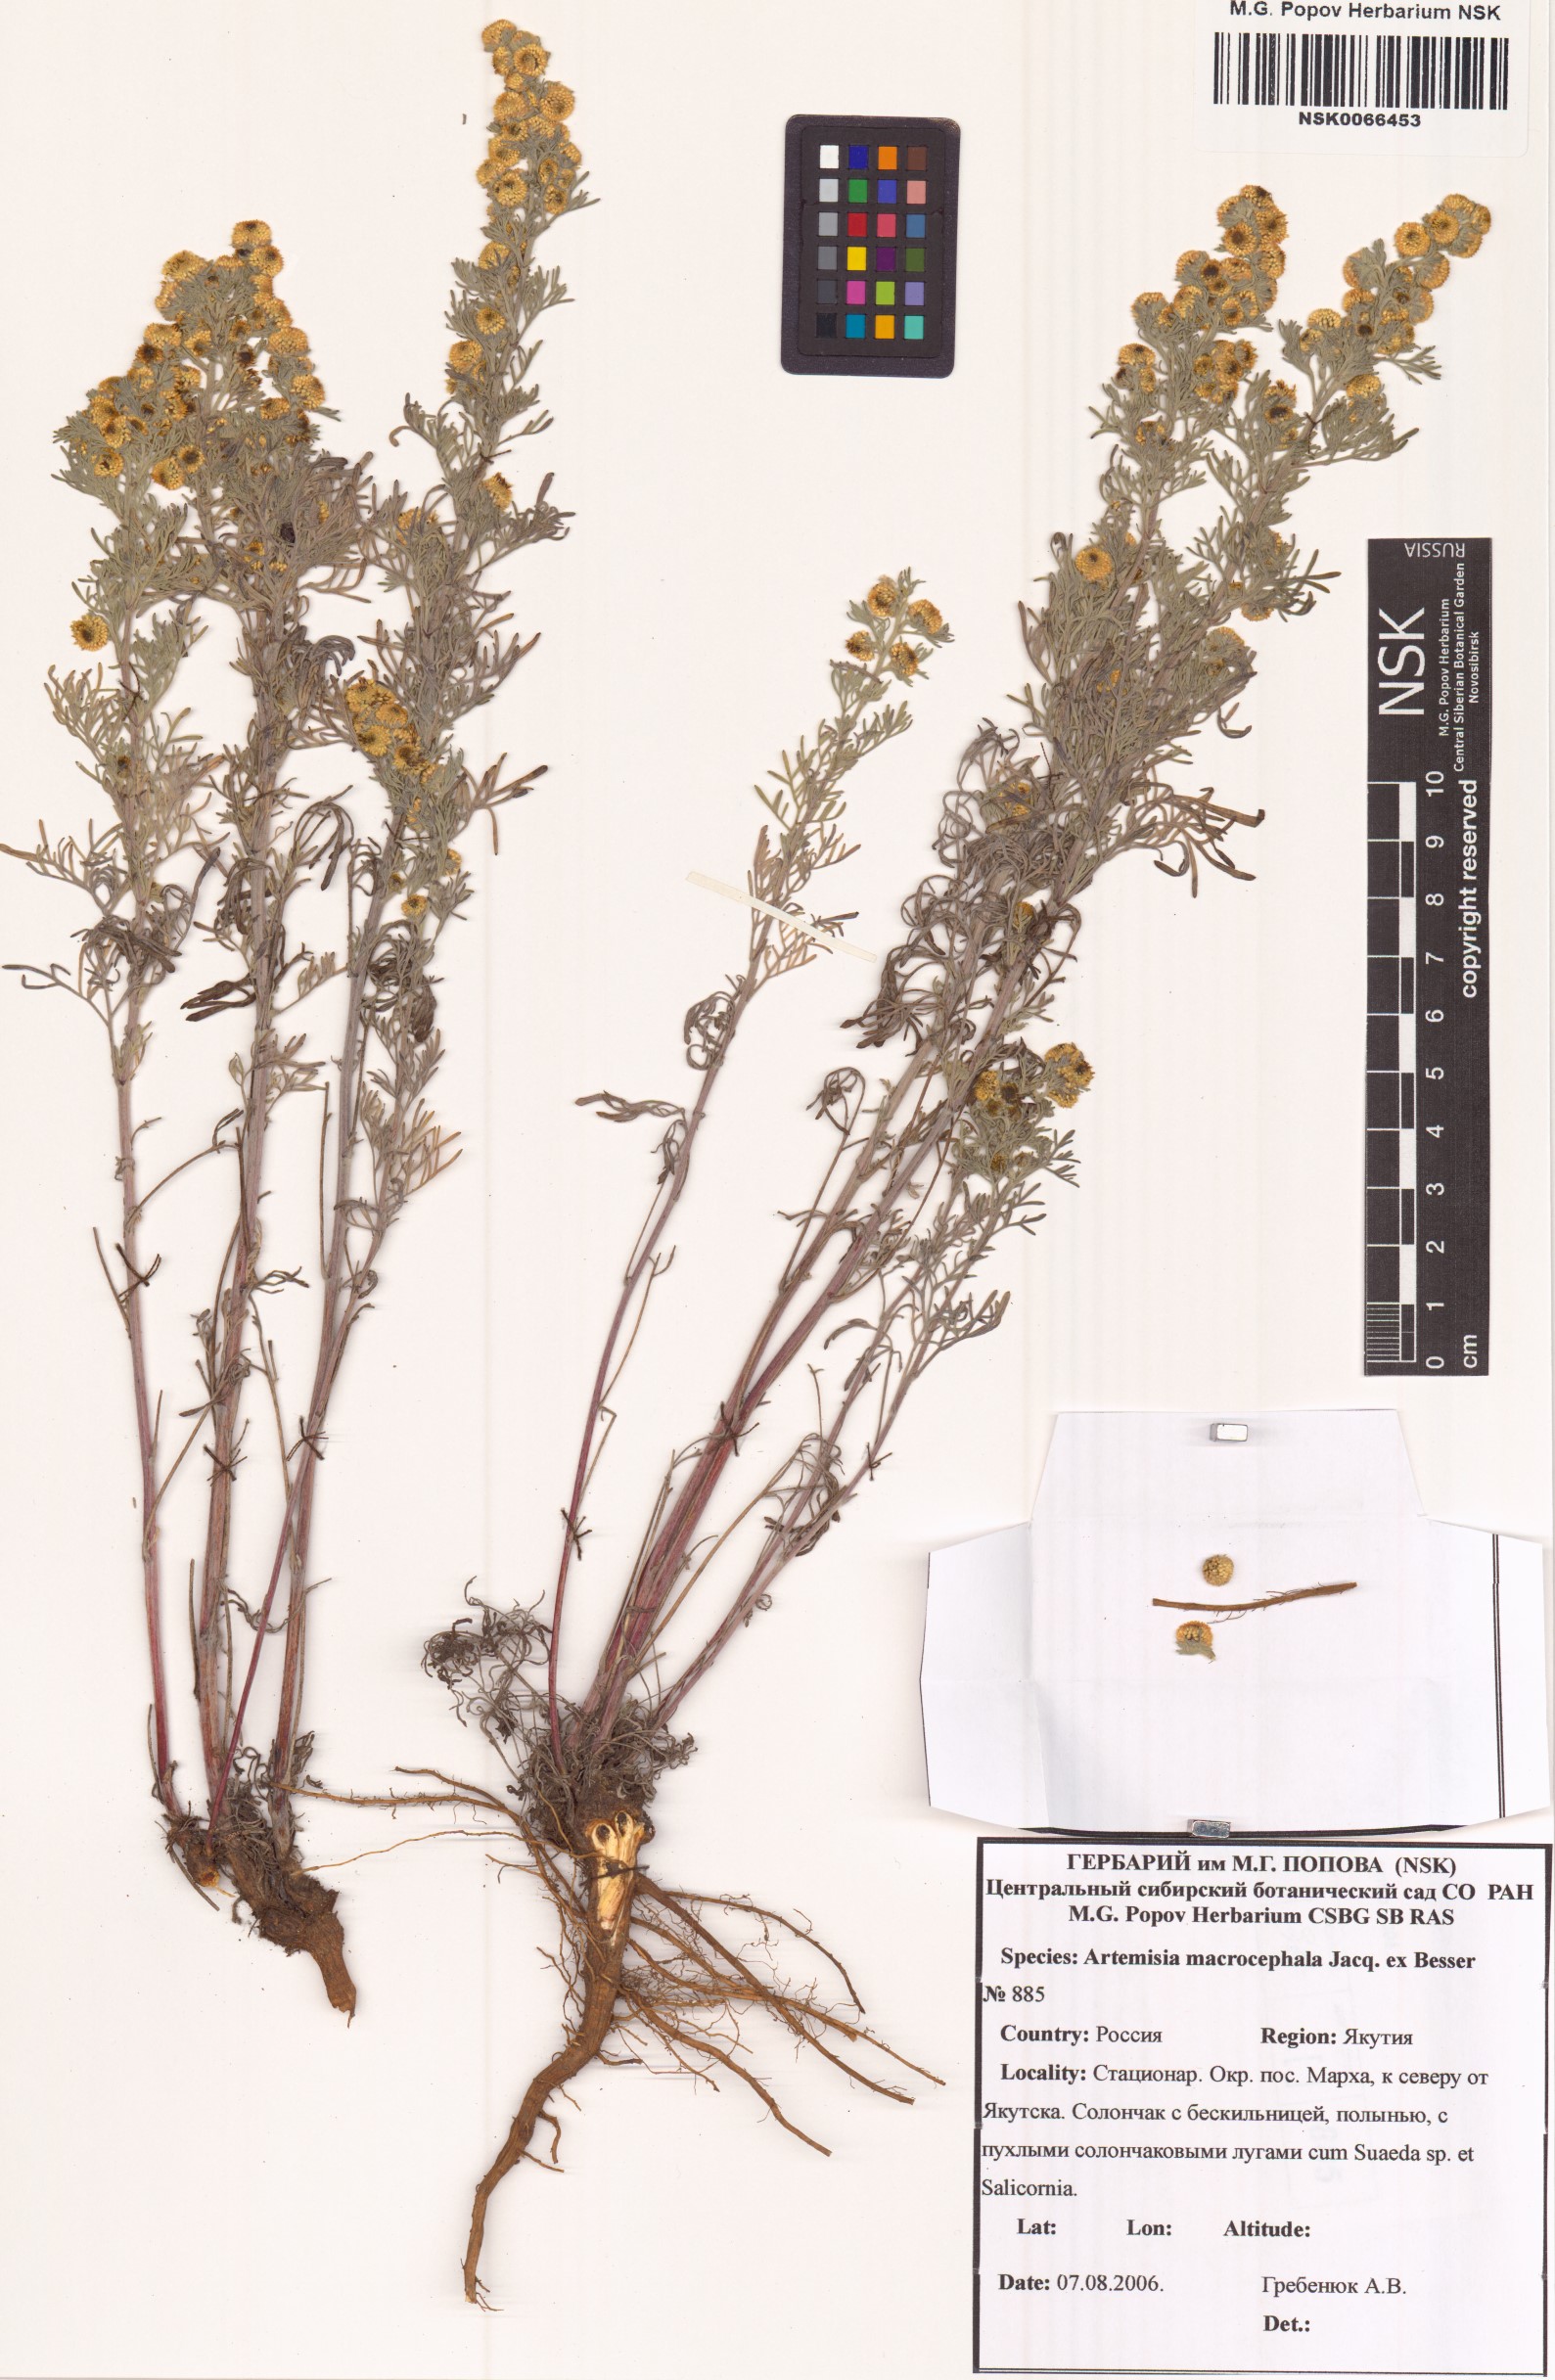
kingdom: Plantae
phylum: Tracheophyta
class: Magnoliopsida
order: Asterales
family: Asteraceae
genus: Artemisia
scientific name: Artemisia macrocephala
